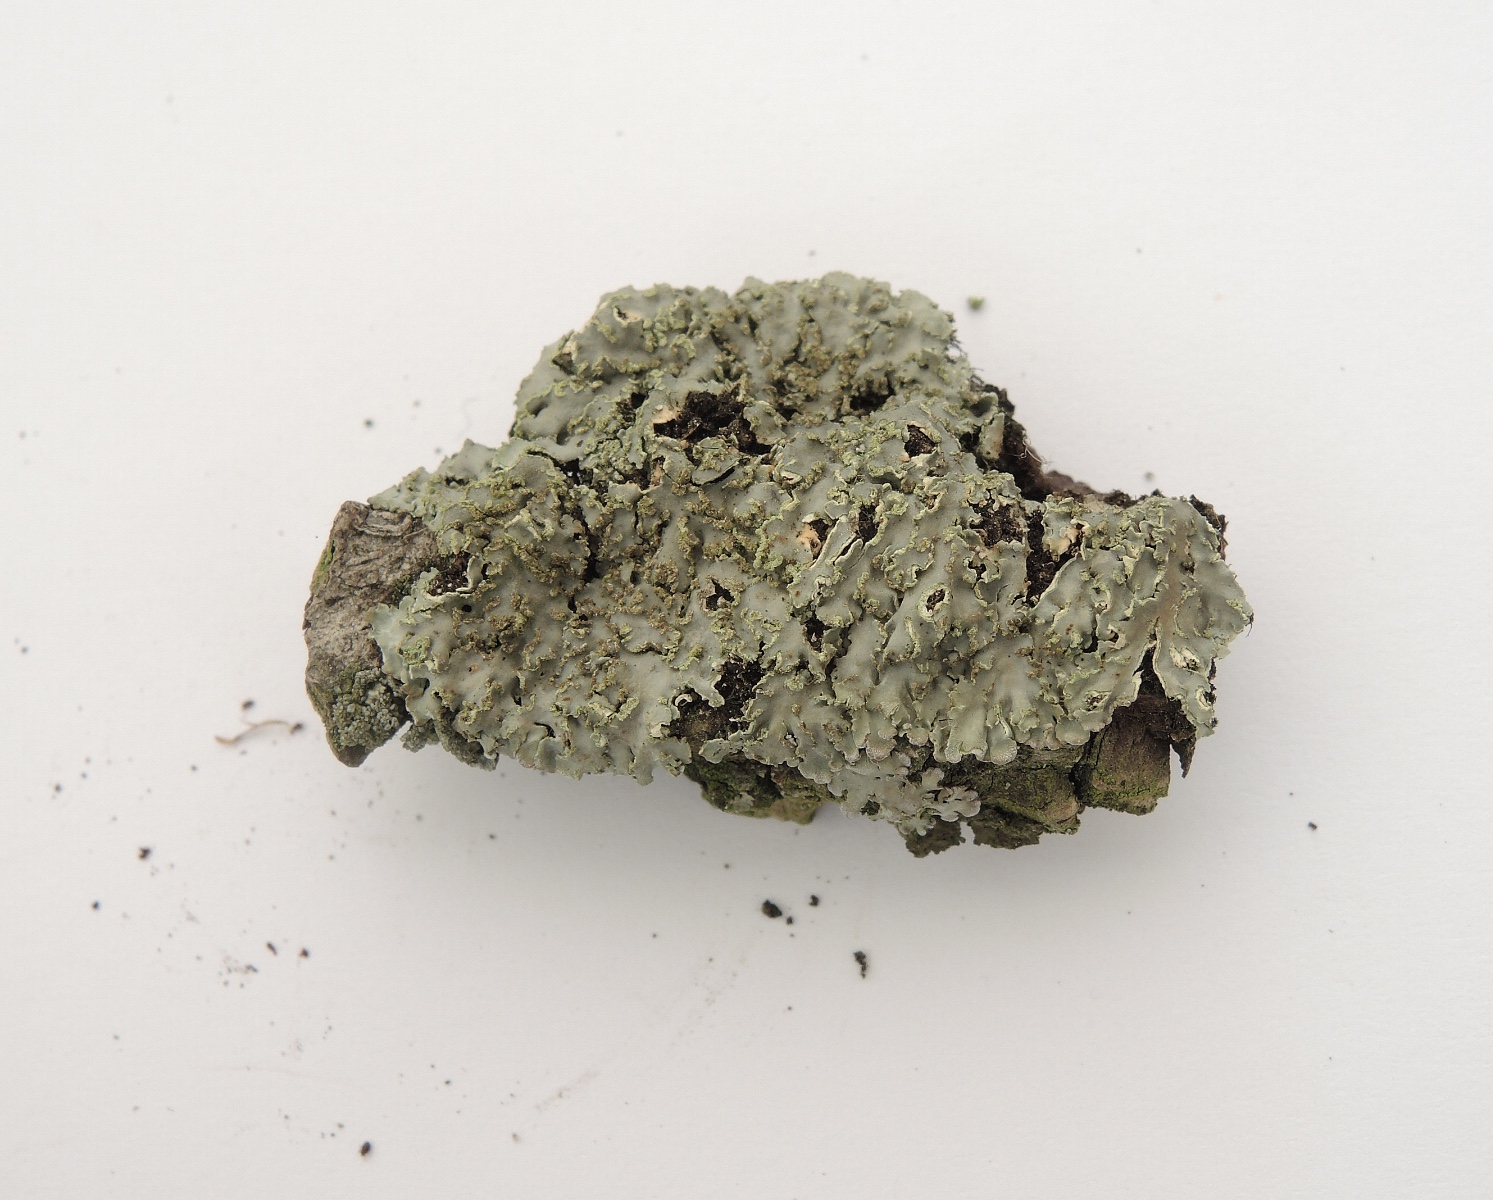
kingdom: Fungi
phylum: Ascomycota
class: Lecanoromycetes
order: Caliciales
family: Physciaceae
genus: Physconia
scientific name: Physconia enteroxantha
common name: grynet dugrosetlav
